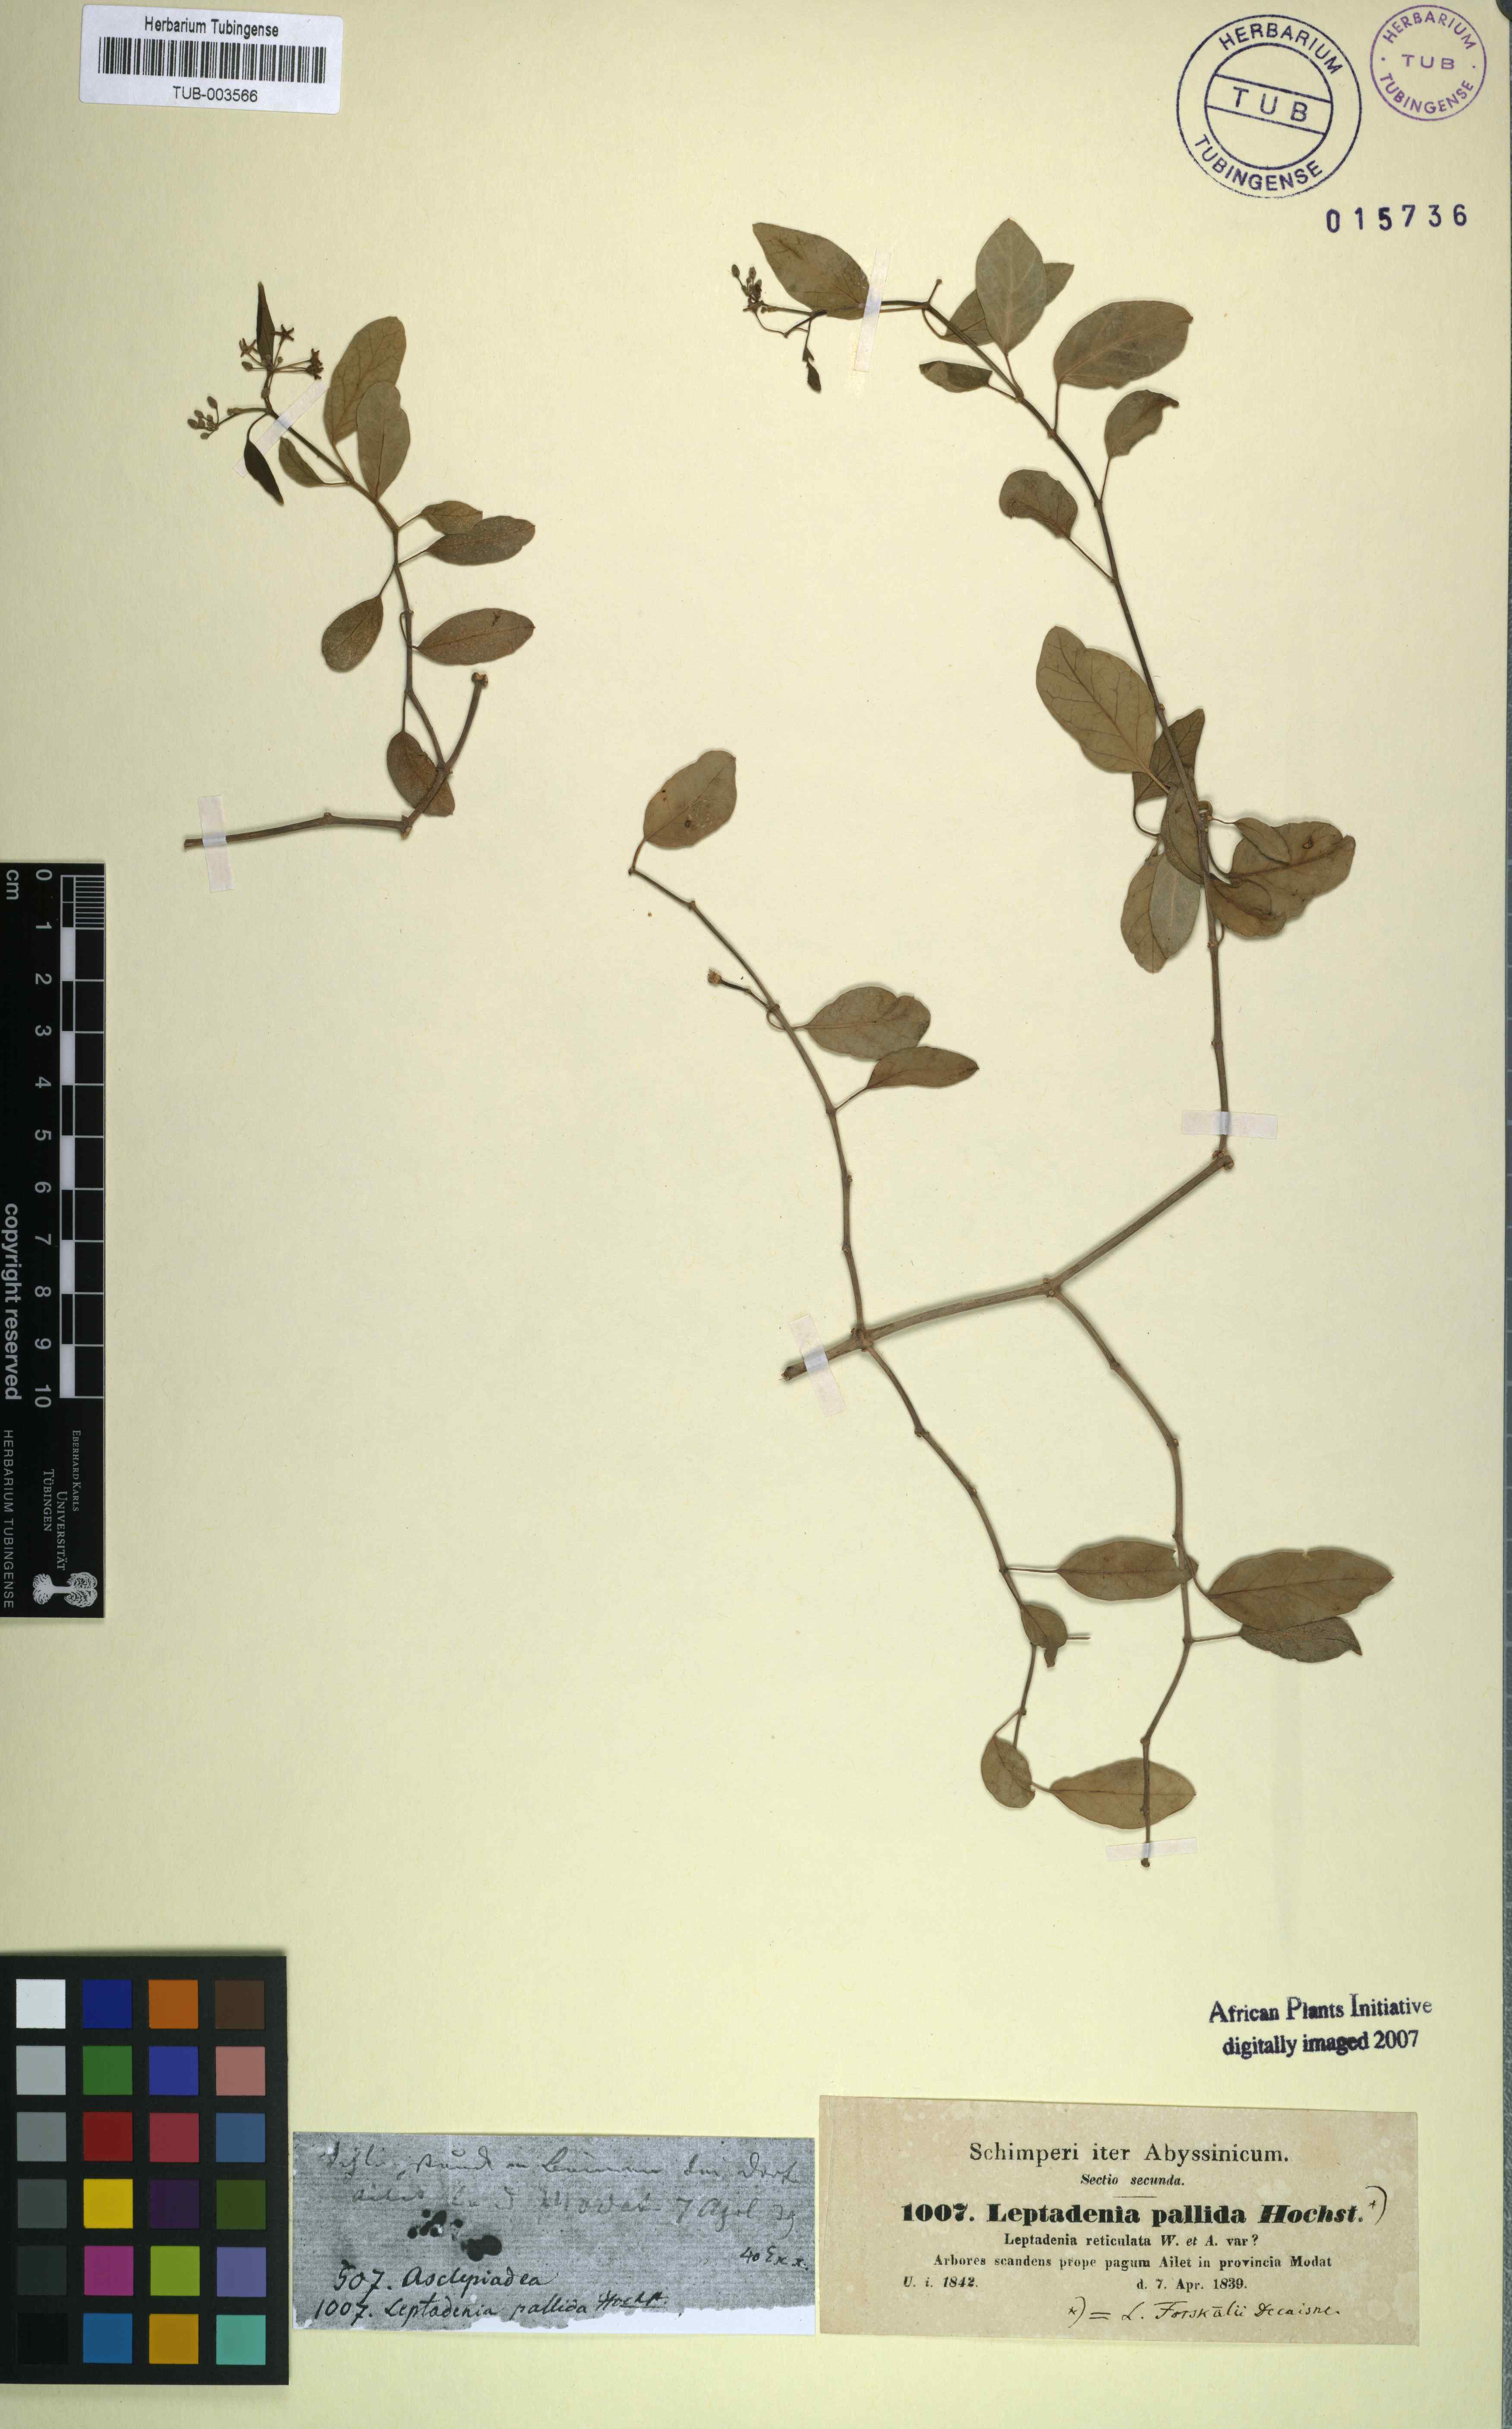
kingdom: Plantae
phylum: Tracheophyta
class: Magnoliopsida
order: Gentianales
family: Apocynaceae
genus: Leptadenia
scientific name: Leptadenia forsskalii
